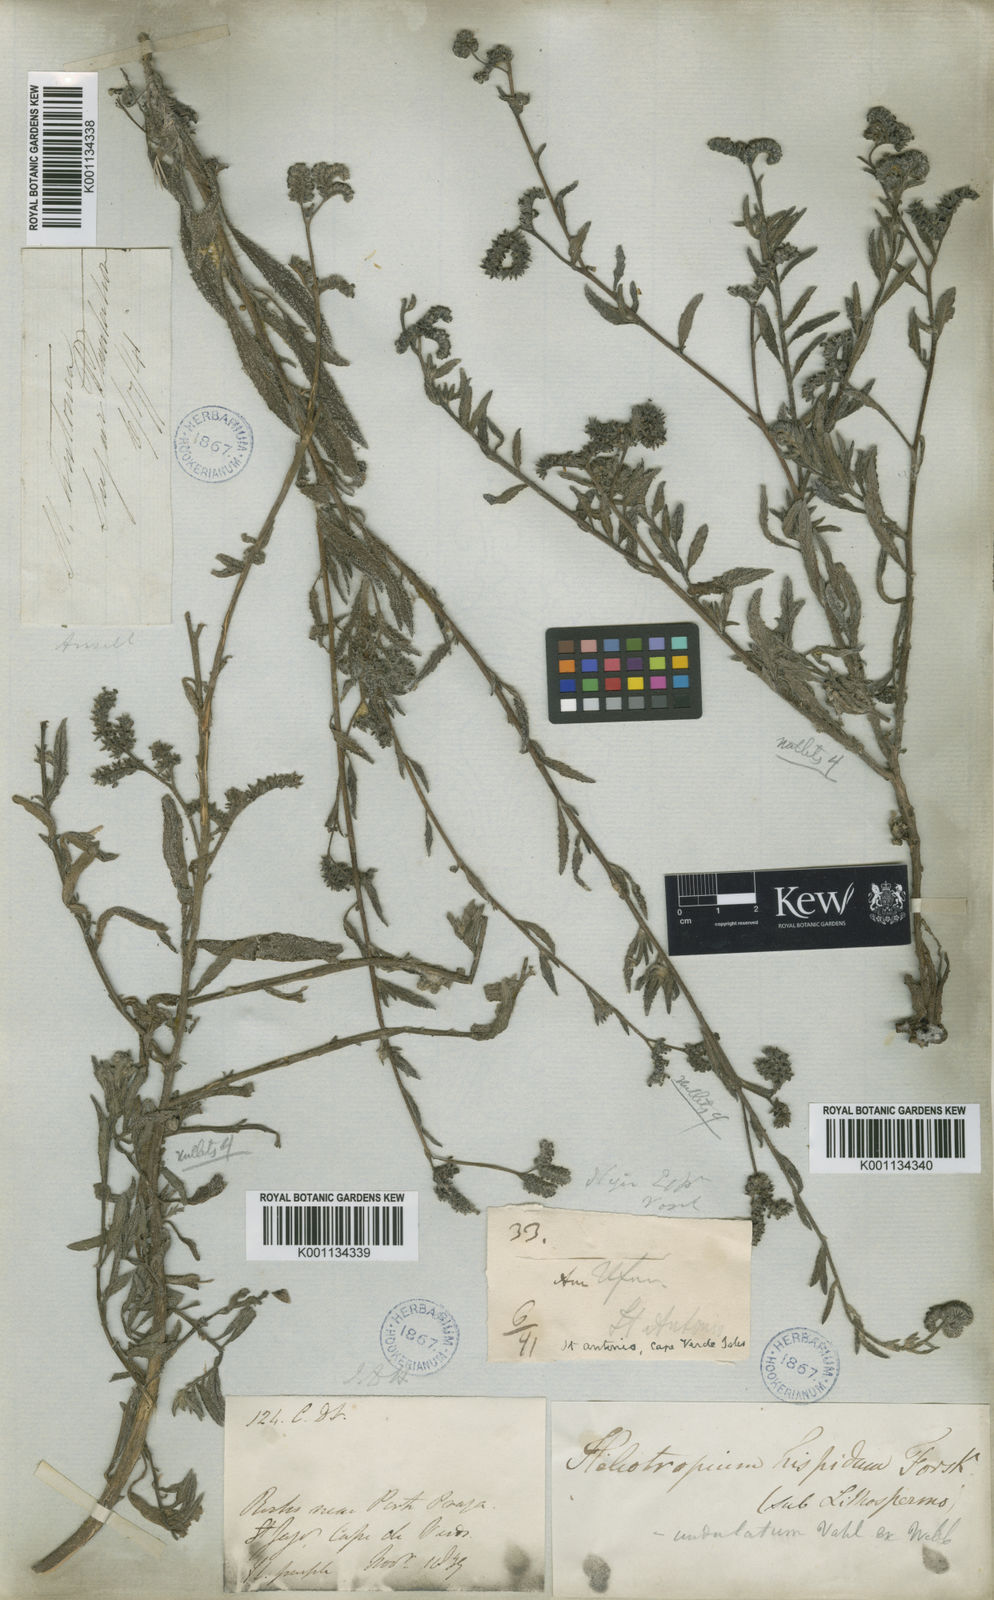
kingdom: Plantae
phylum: Tracheophyta
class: Magnoliopsida
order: Boraginales
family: Heliotropiaceae
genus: Heliotropium
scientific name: Heliotropium crispum
